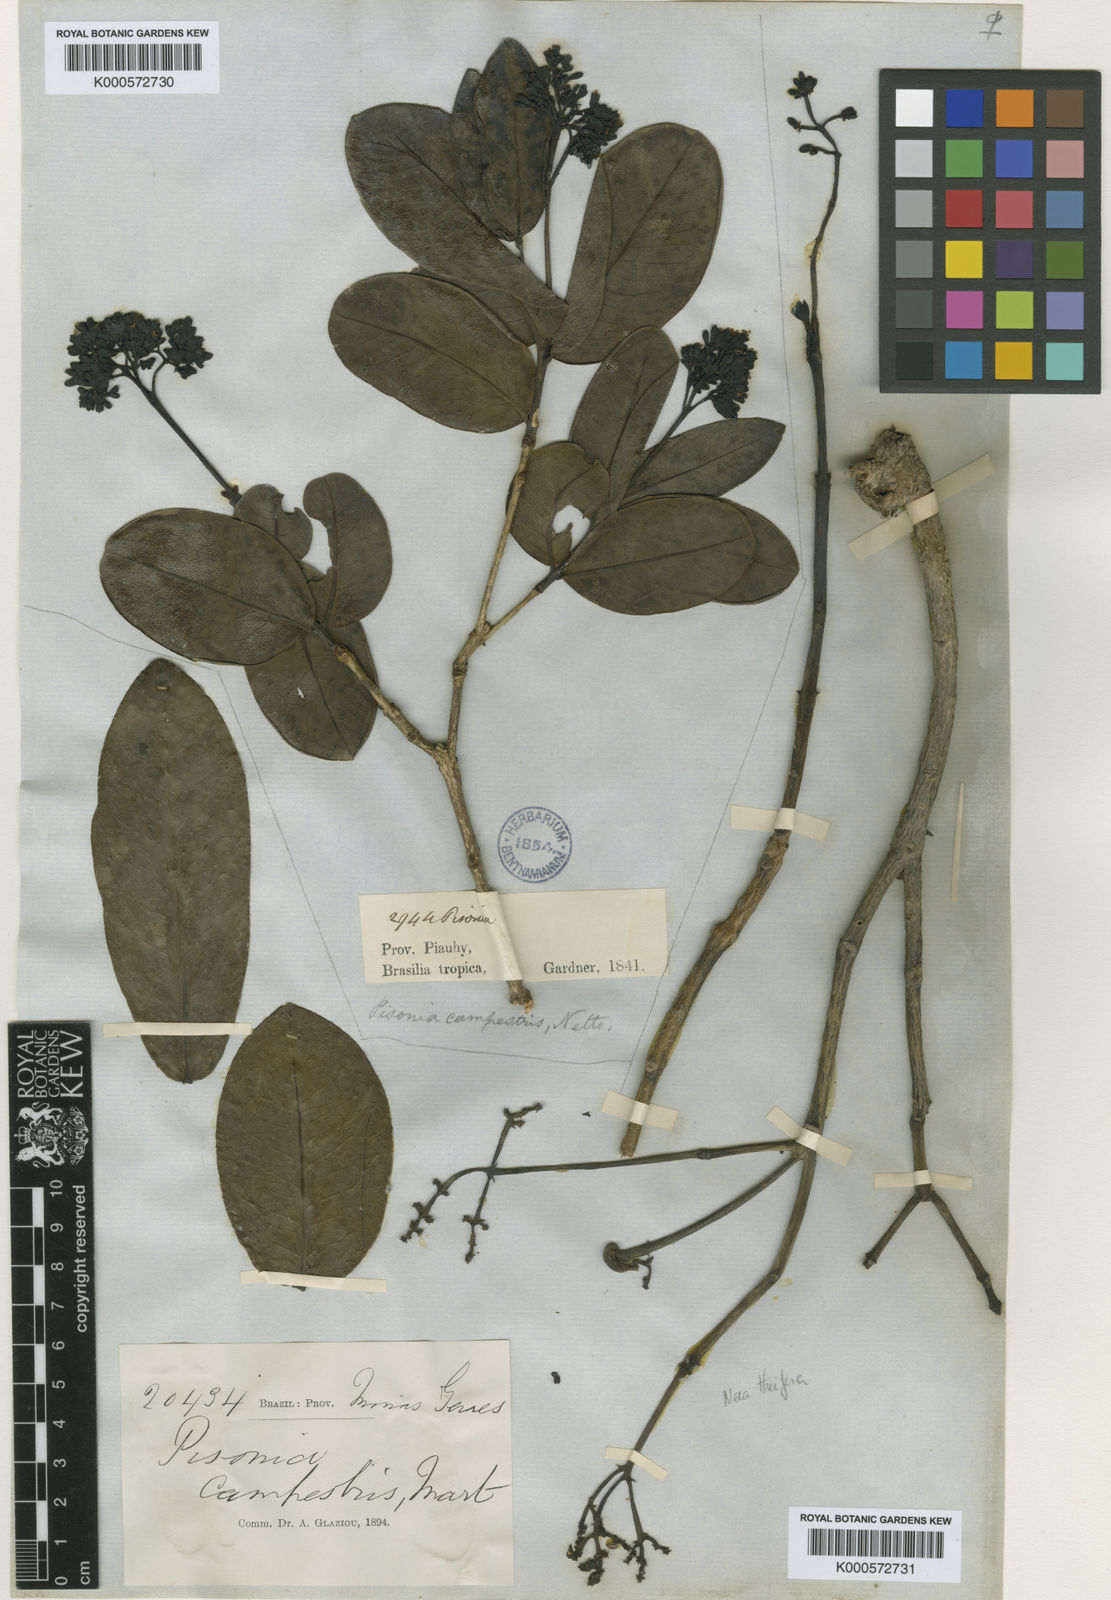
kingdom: Plantae
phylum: Tracheophyta
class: Magnoliopsida
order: Caryophyllales
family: Nyctaginaceae
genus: Guapira
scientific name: Guapira campestris
